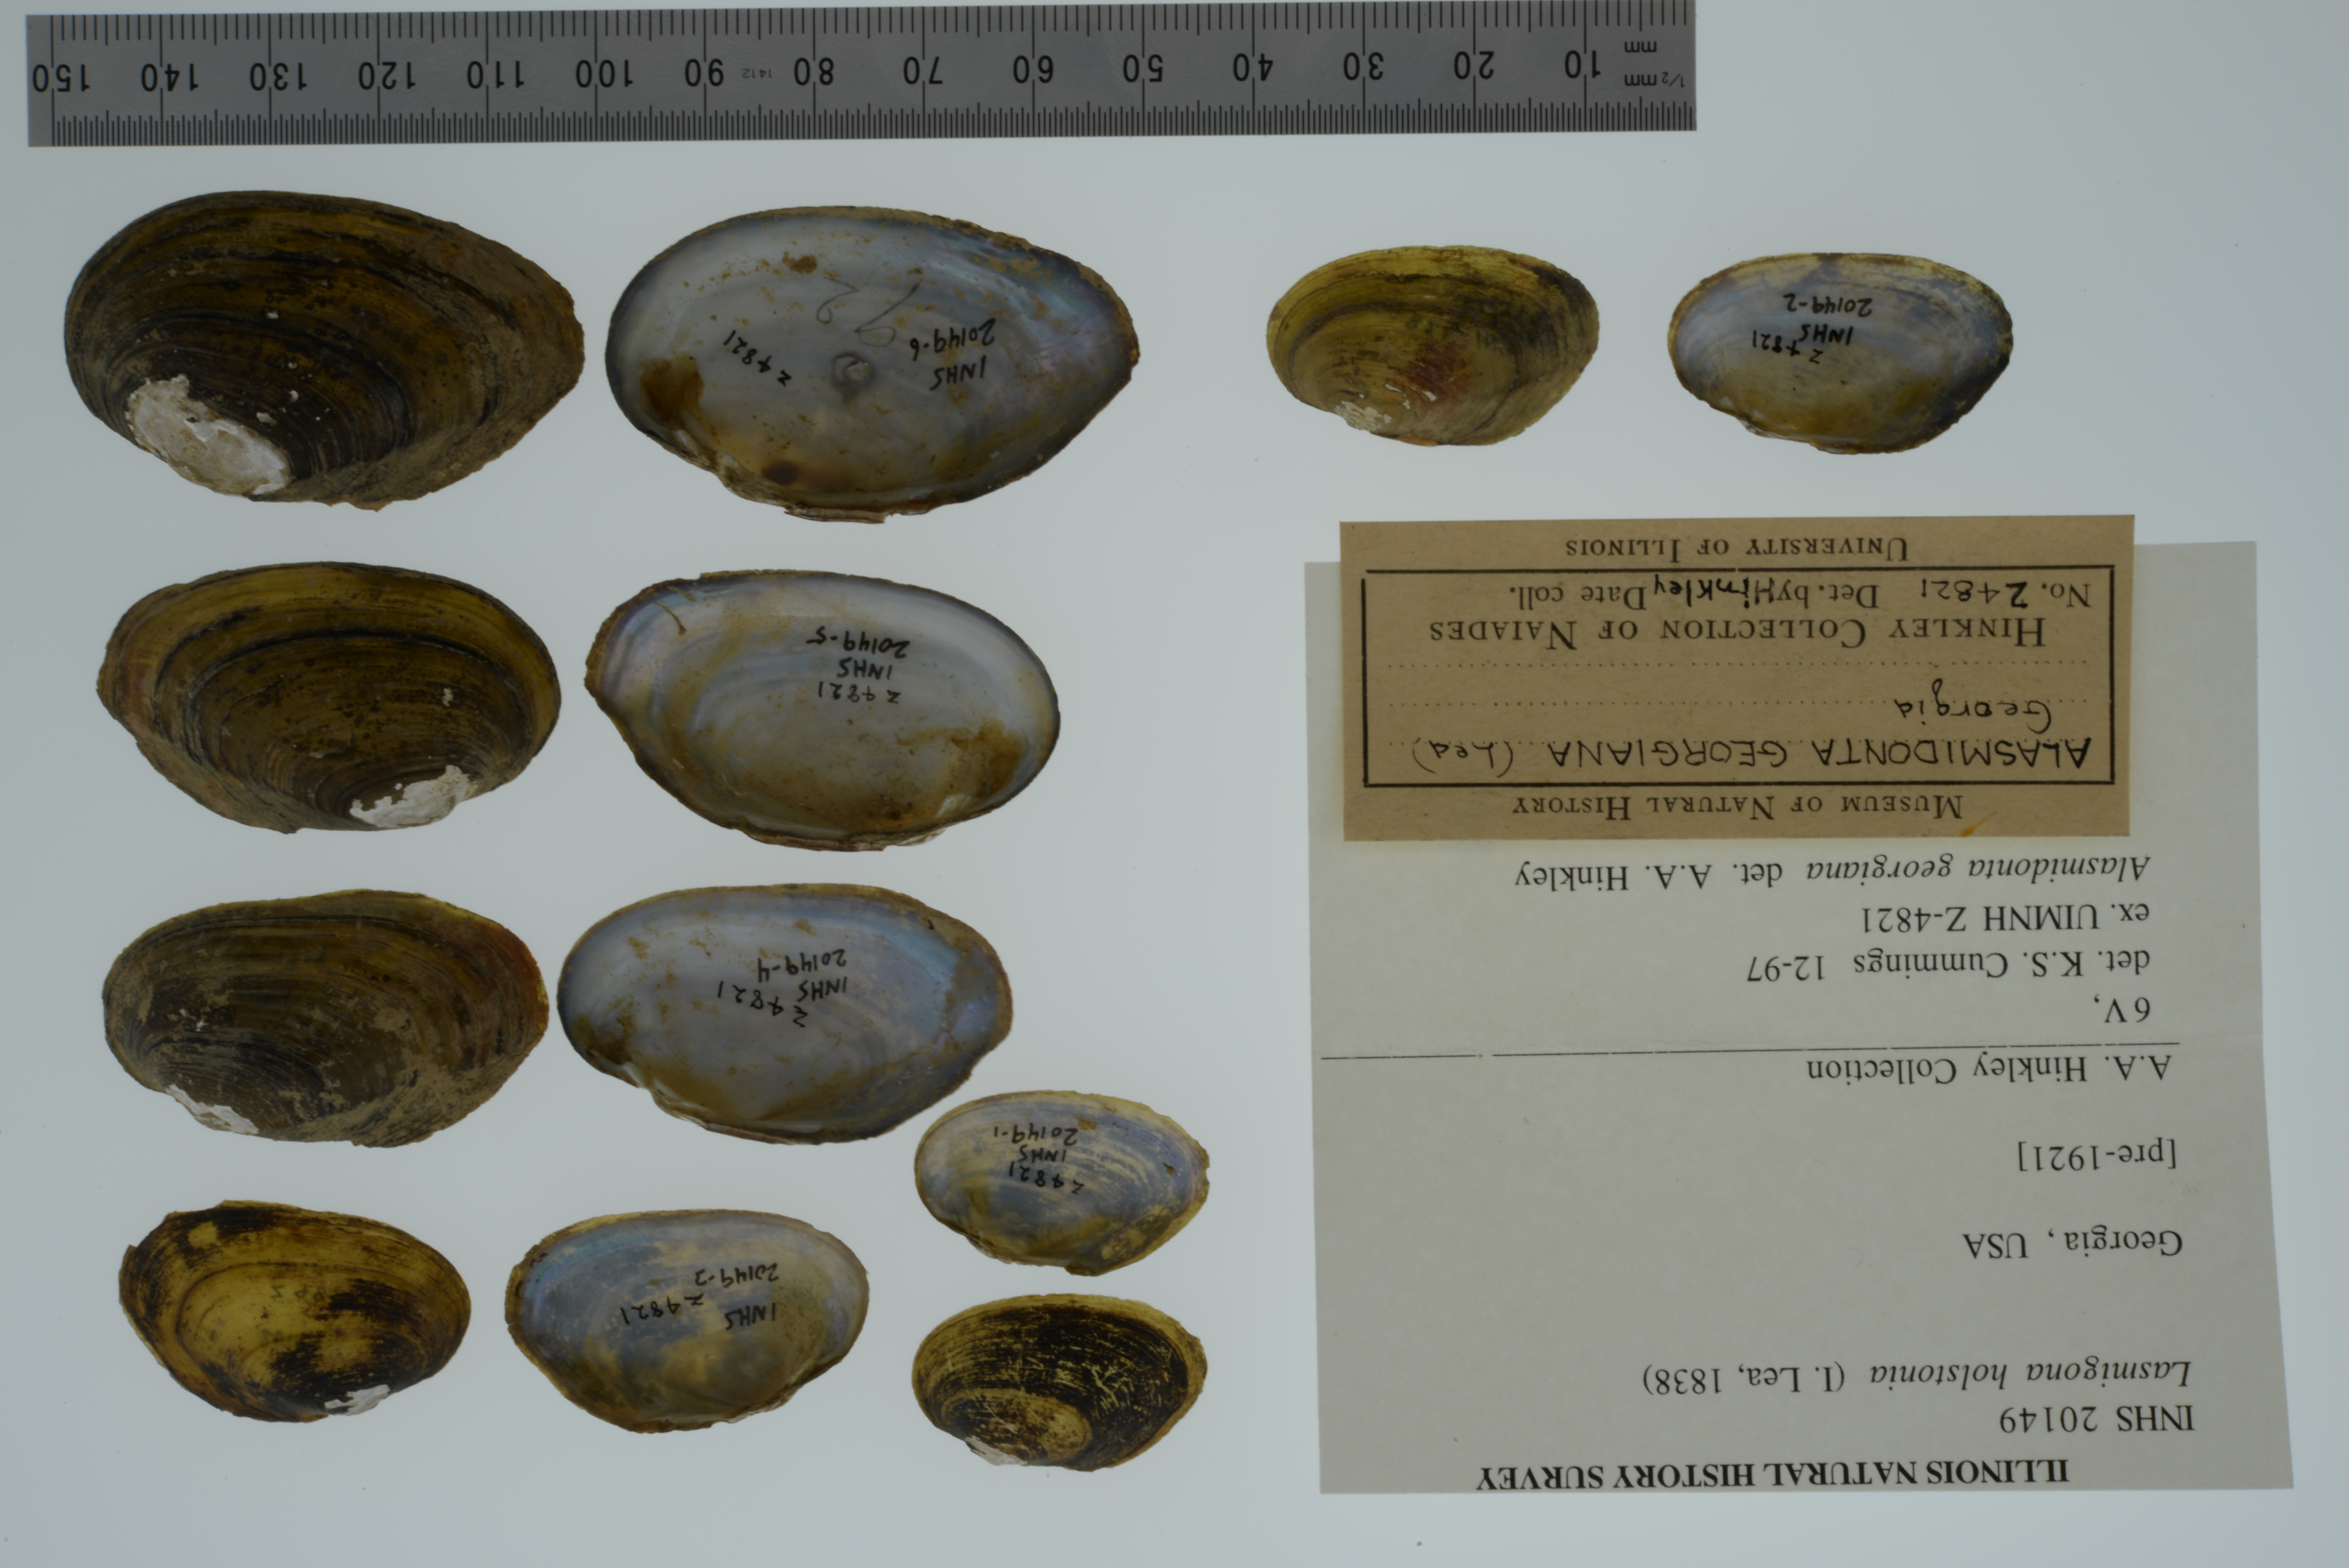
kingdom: Animalia
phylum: Mollusca
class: Bivalvia
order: Unionida
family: Unionidae
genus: Lasmigona
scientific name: Lasmigona holstonia
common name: Tennessee heelsplitter
